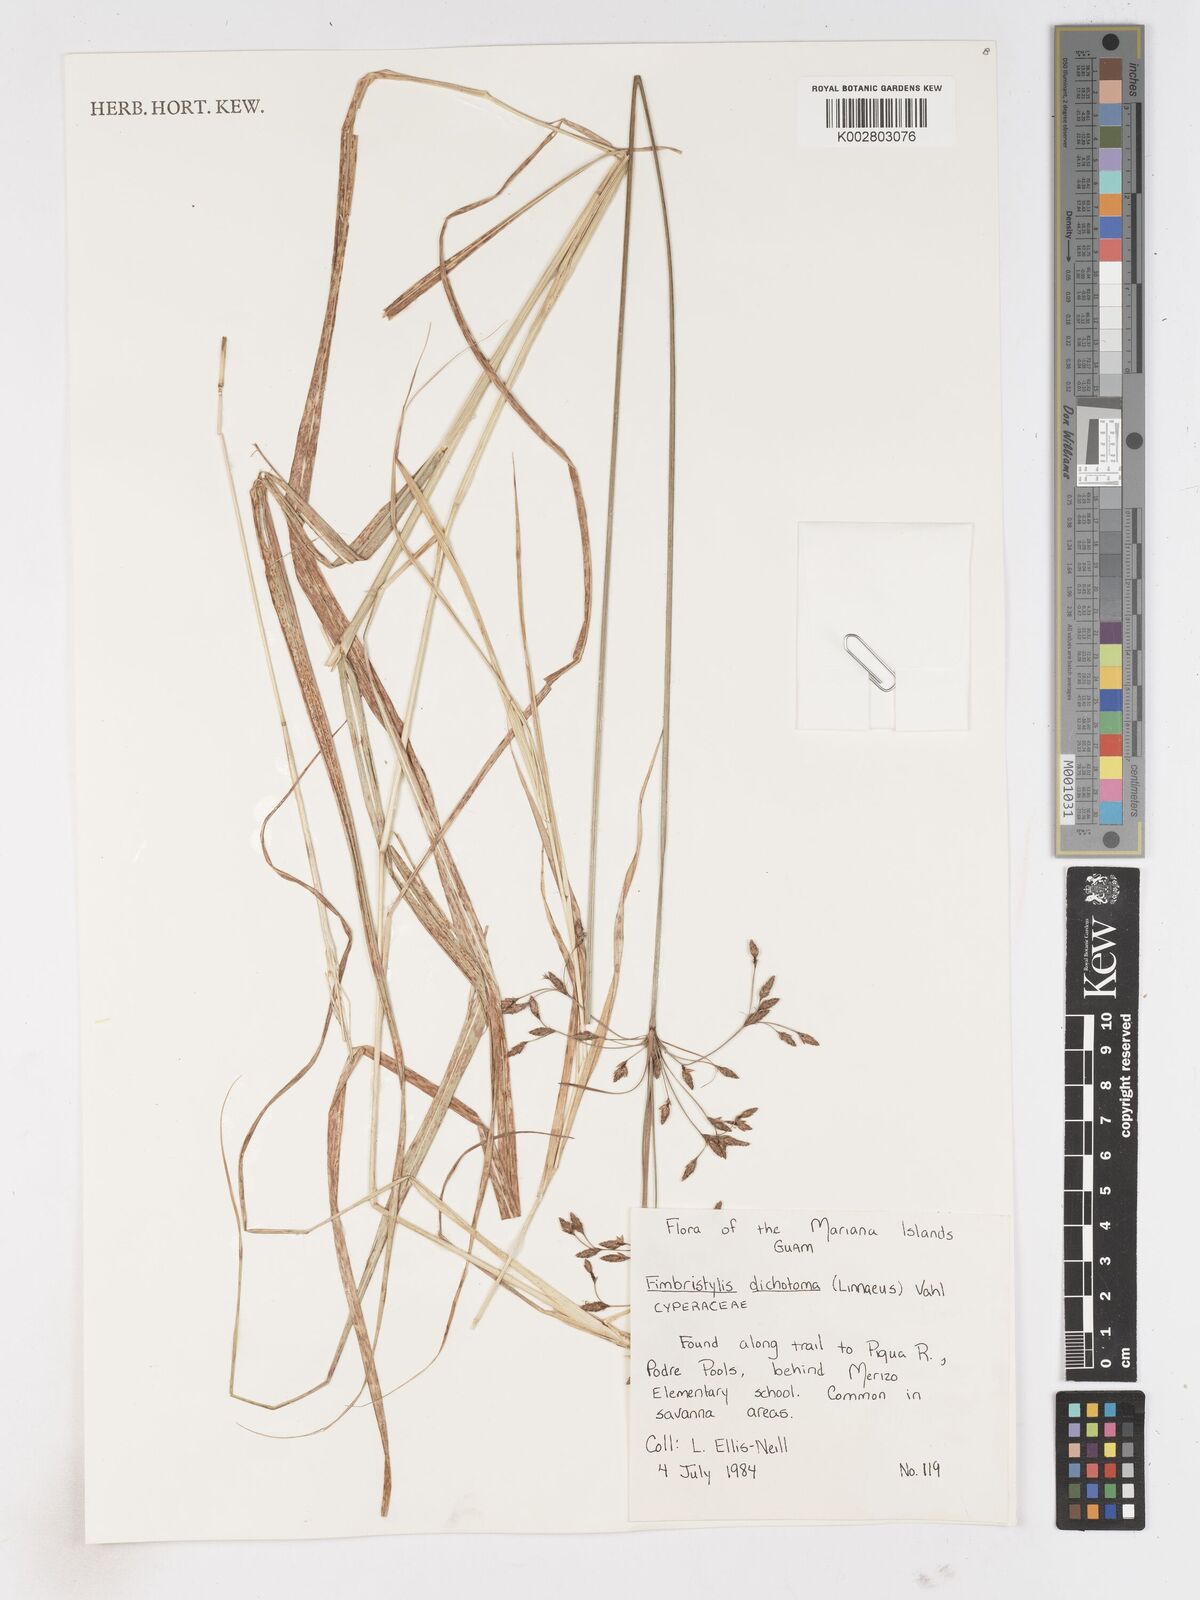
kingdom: Plantae
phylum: Tracheophyta
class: Liliopsida
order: Poales
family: Cyperaceae
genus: Fimbristylis
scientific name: Fimbristylis dichotoma
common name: Forked fimbry
